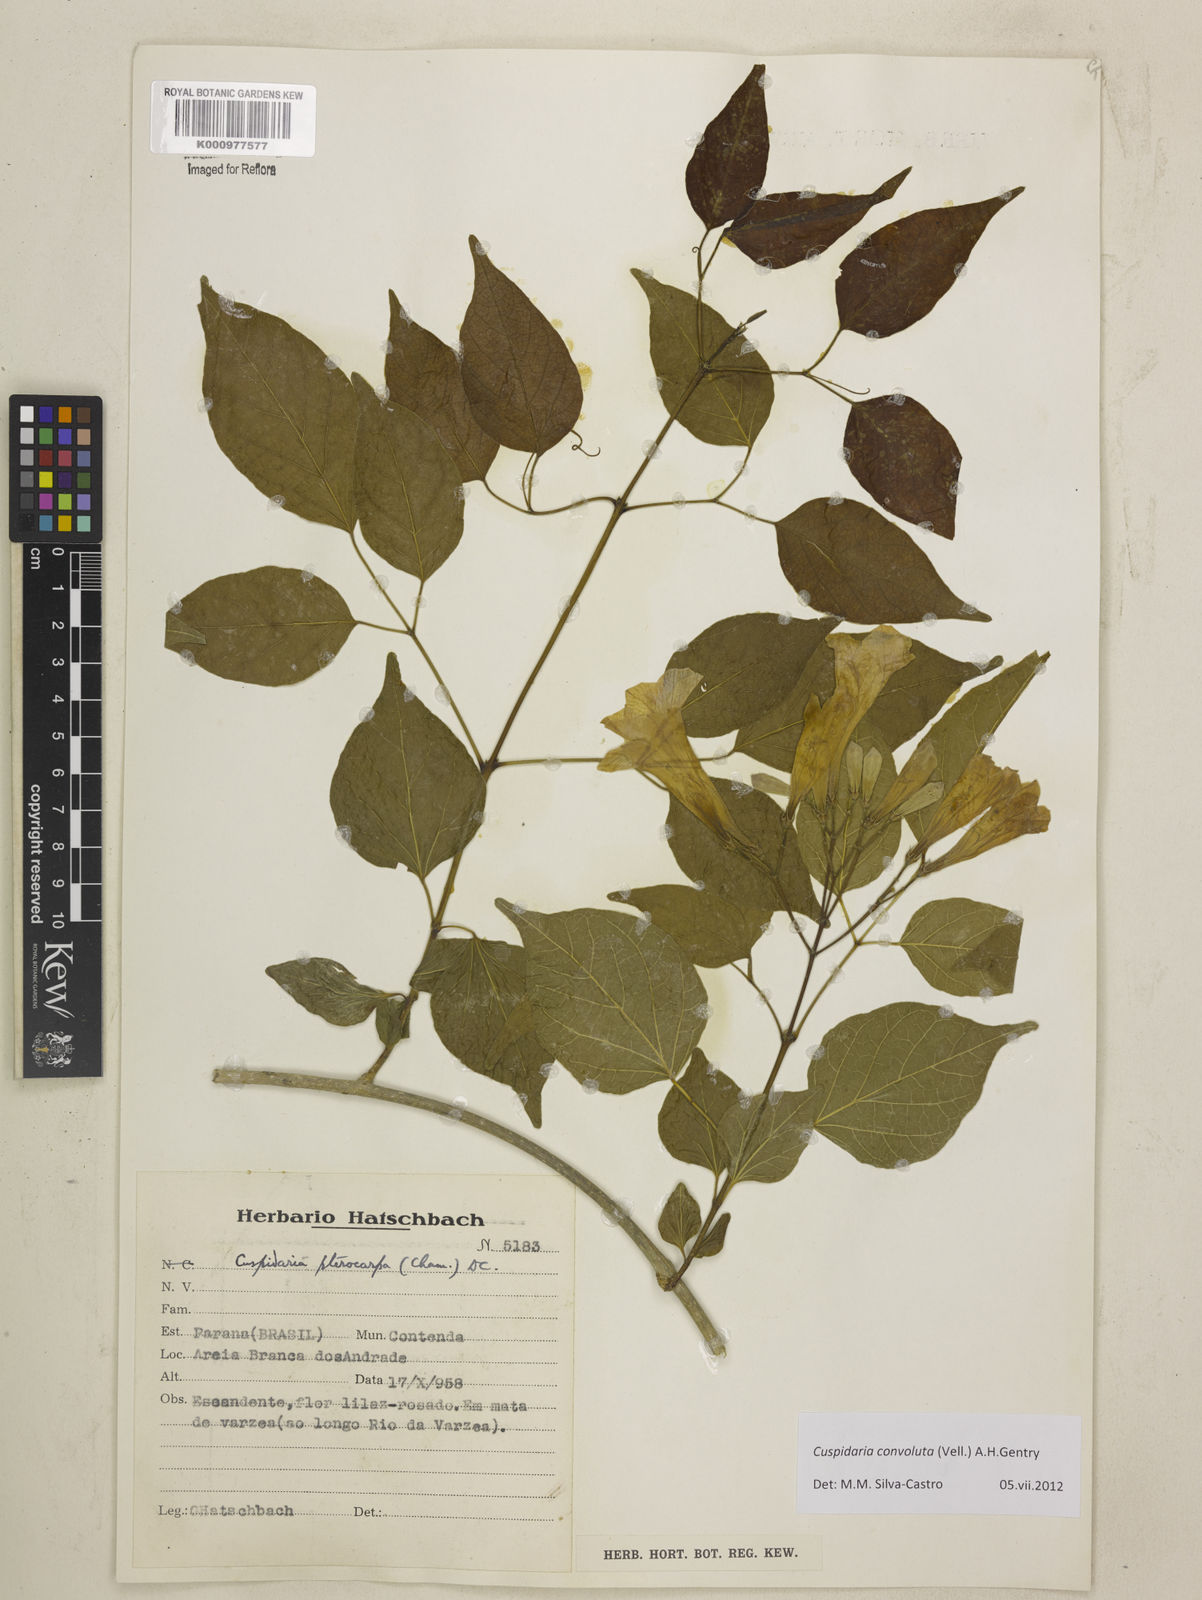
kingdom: Plantae
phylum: Tracheophyta
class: Magnoliopsida
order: Lamiales
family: Bignoniaceae
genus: Cuspidaria
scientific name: Cuspidaria convoluta
